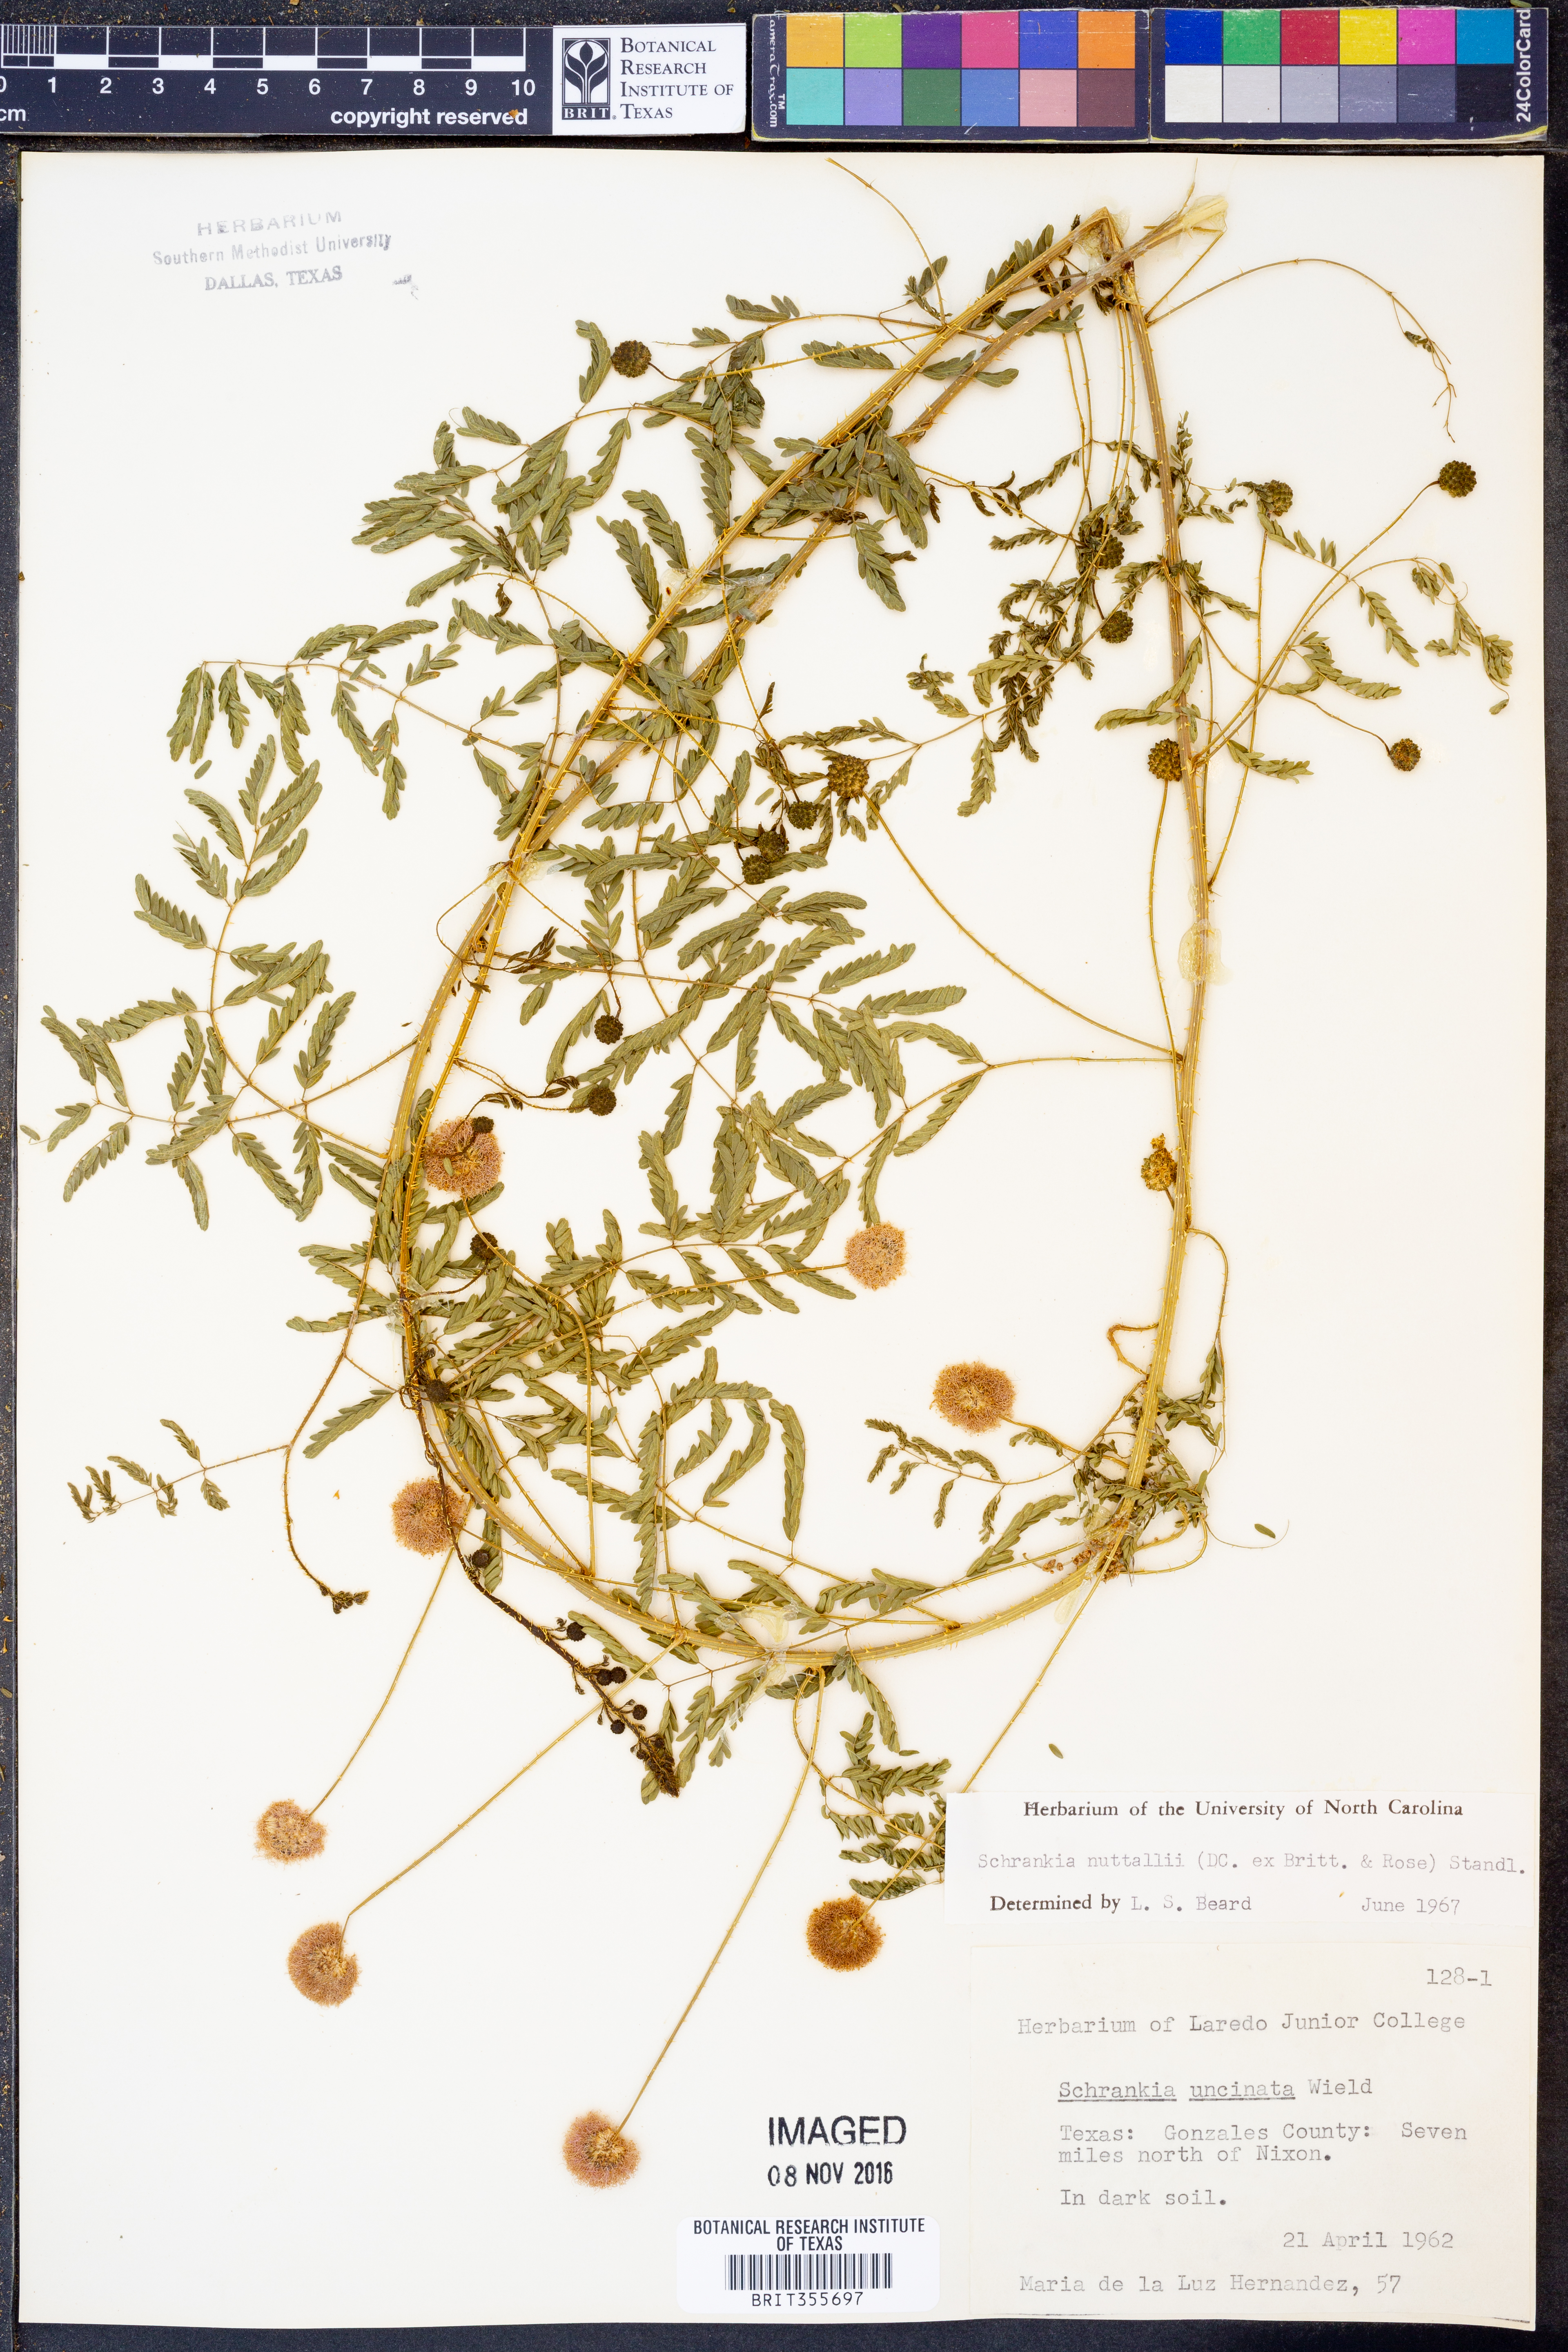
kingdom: Plantae
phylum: Tracheophyta
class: Magnoliopsida
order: Fabales
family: Fabaceae
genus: Mimosa
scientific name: Mimosa quadrivalvis
